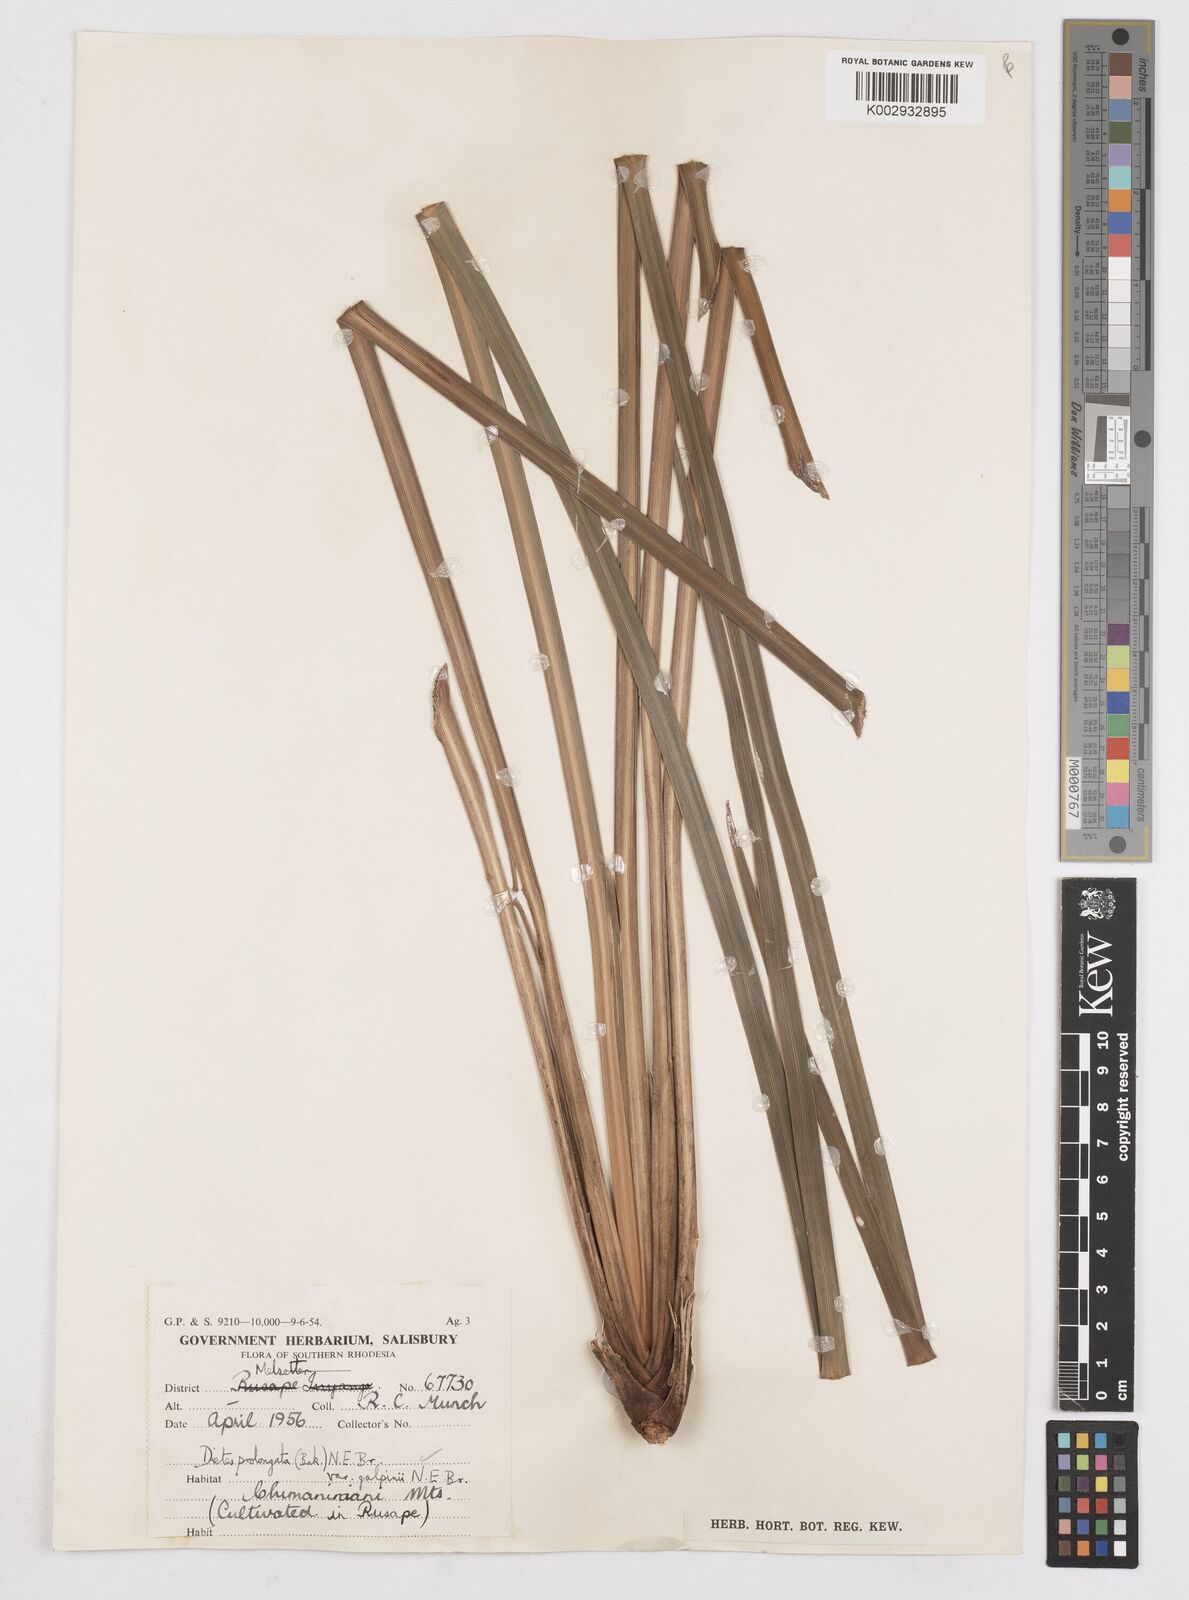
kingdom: Plantae
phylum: Tracheophyta
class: Liliopsida
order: Asparagales
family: Iridaceae
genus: Dietes
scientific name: Dietes iridioides
